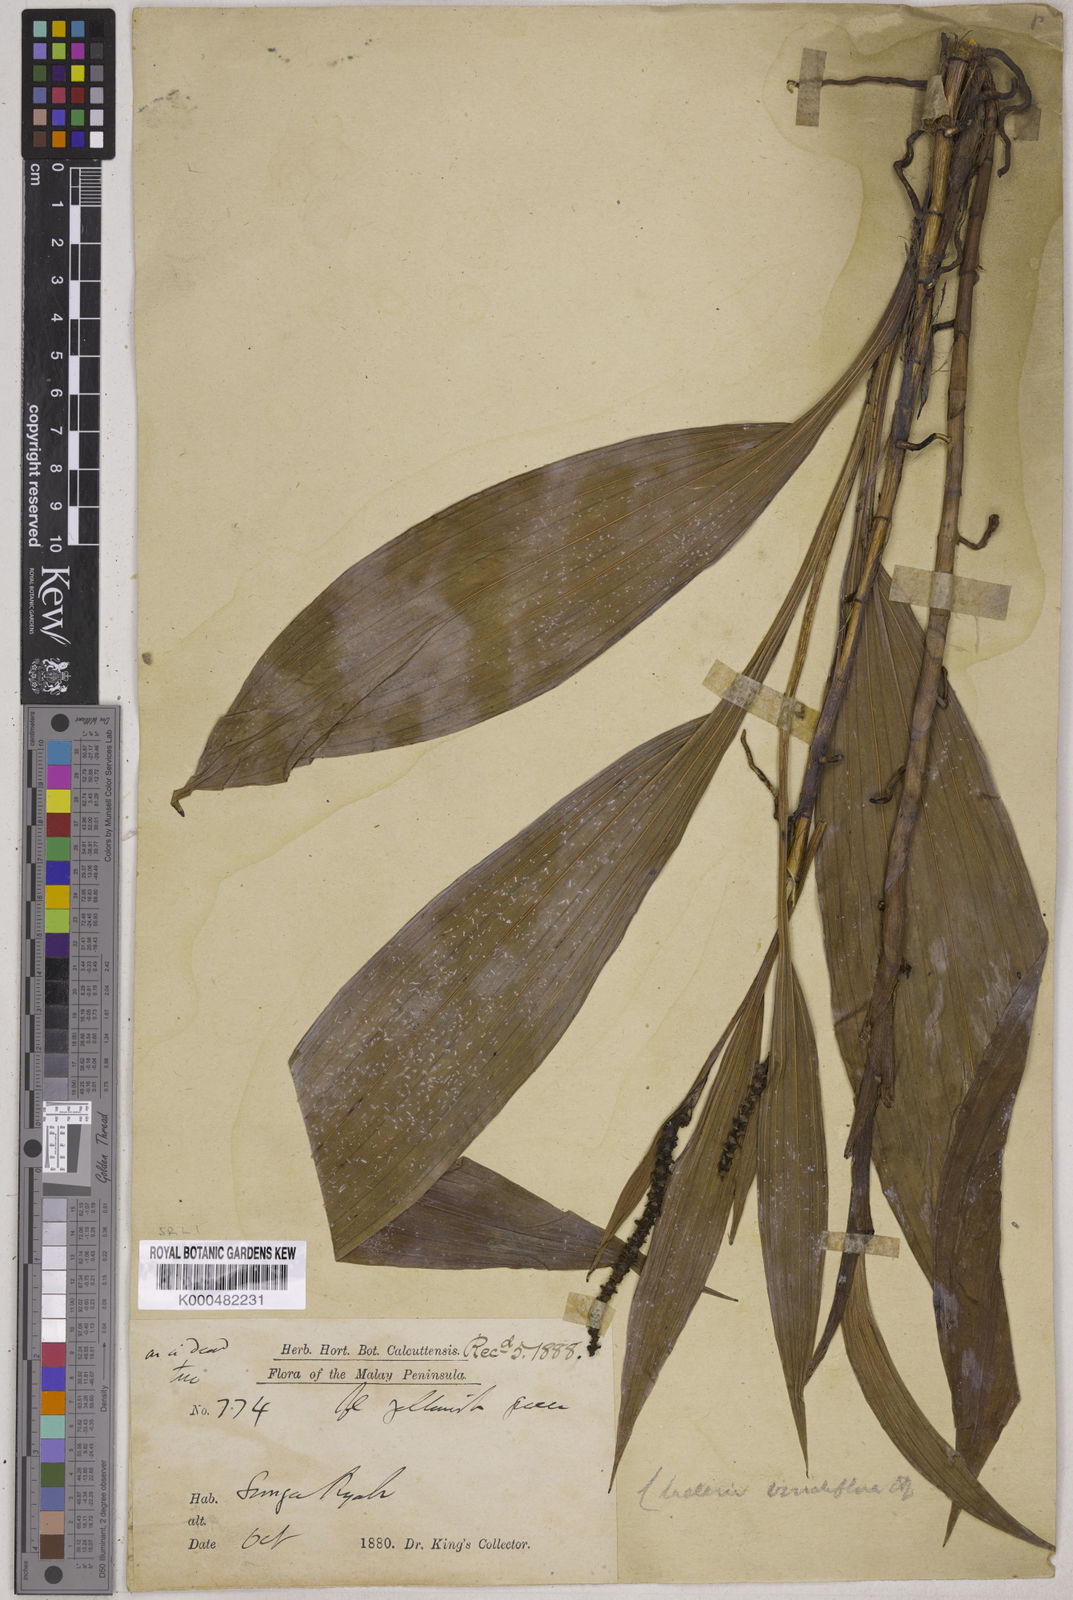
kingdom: Plantae
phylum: Tracheophyta
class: Liliopsida
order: Asparagales
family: Orchidaceae
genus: Claderia
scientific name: Claderia viridiflora
